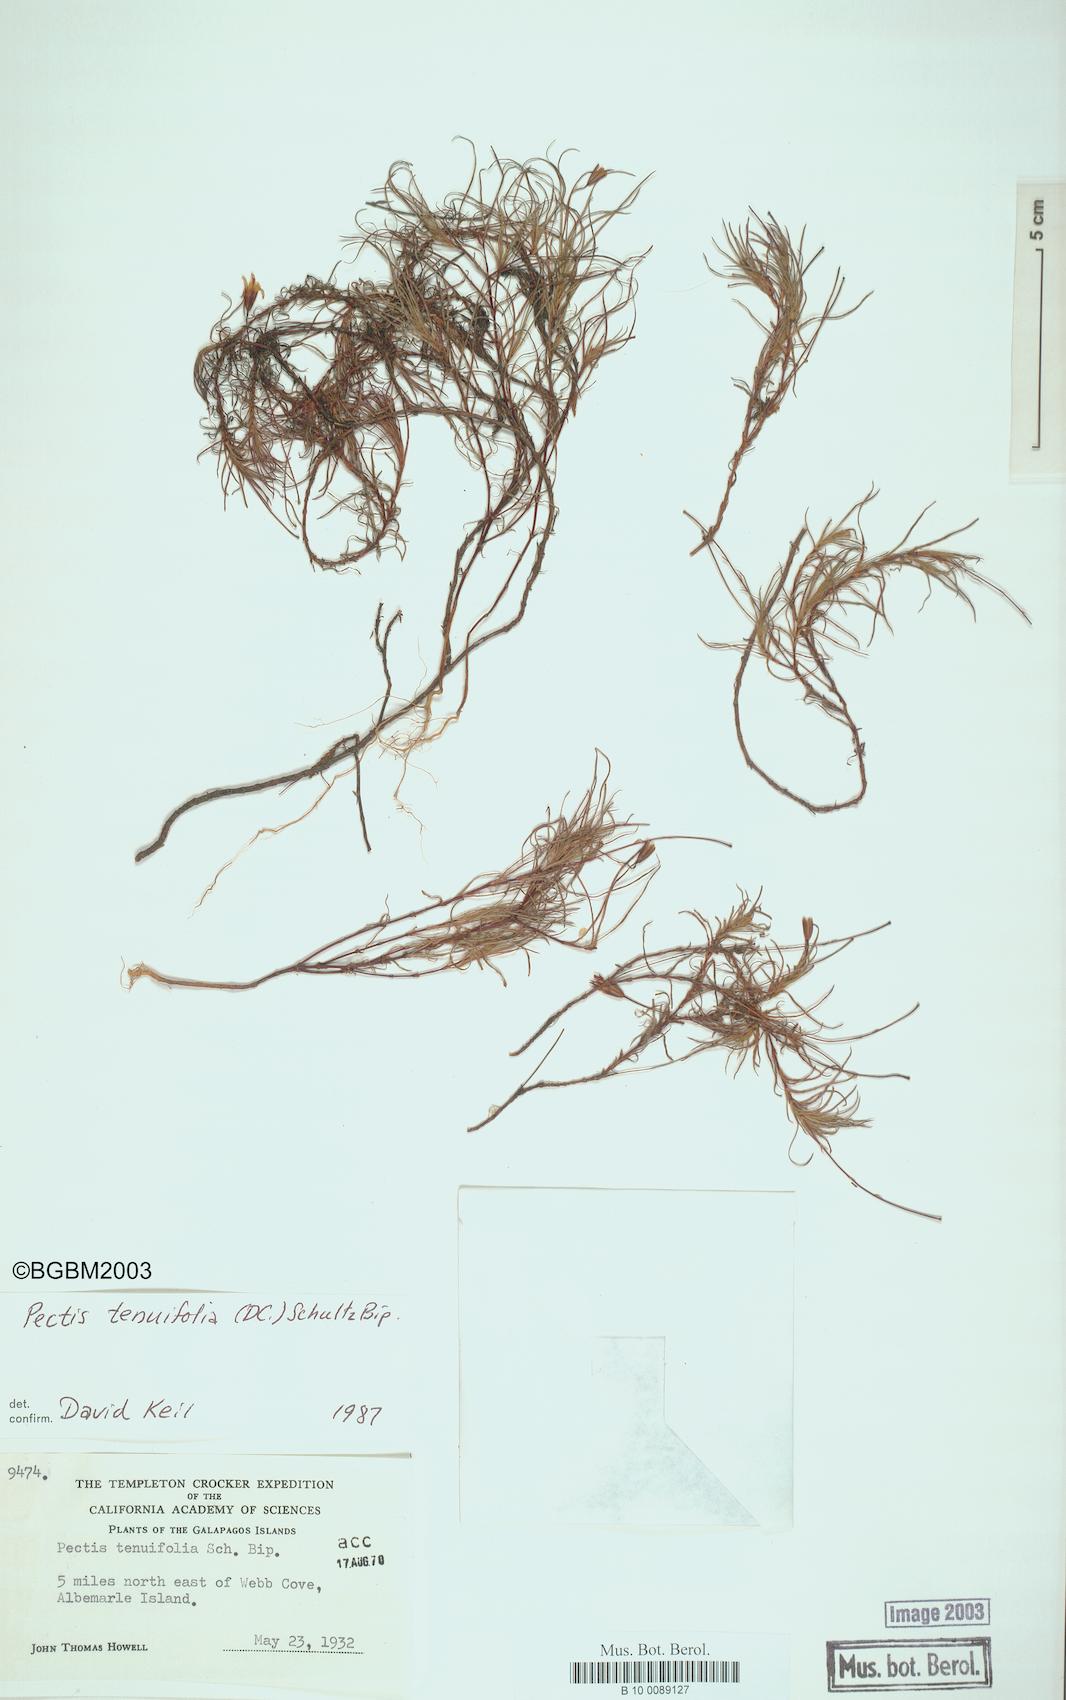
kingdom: Plantae
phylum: Tracheophyta
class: Magnoliopsida
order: Asterales
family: Asteraceae
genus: Pectis
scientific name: Pectis tenuifolia
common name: Oily pectis
